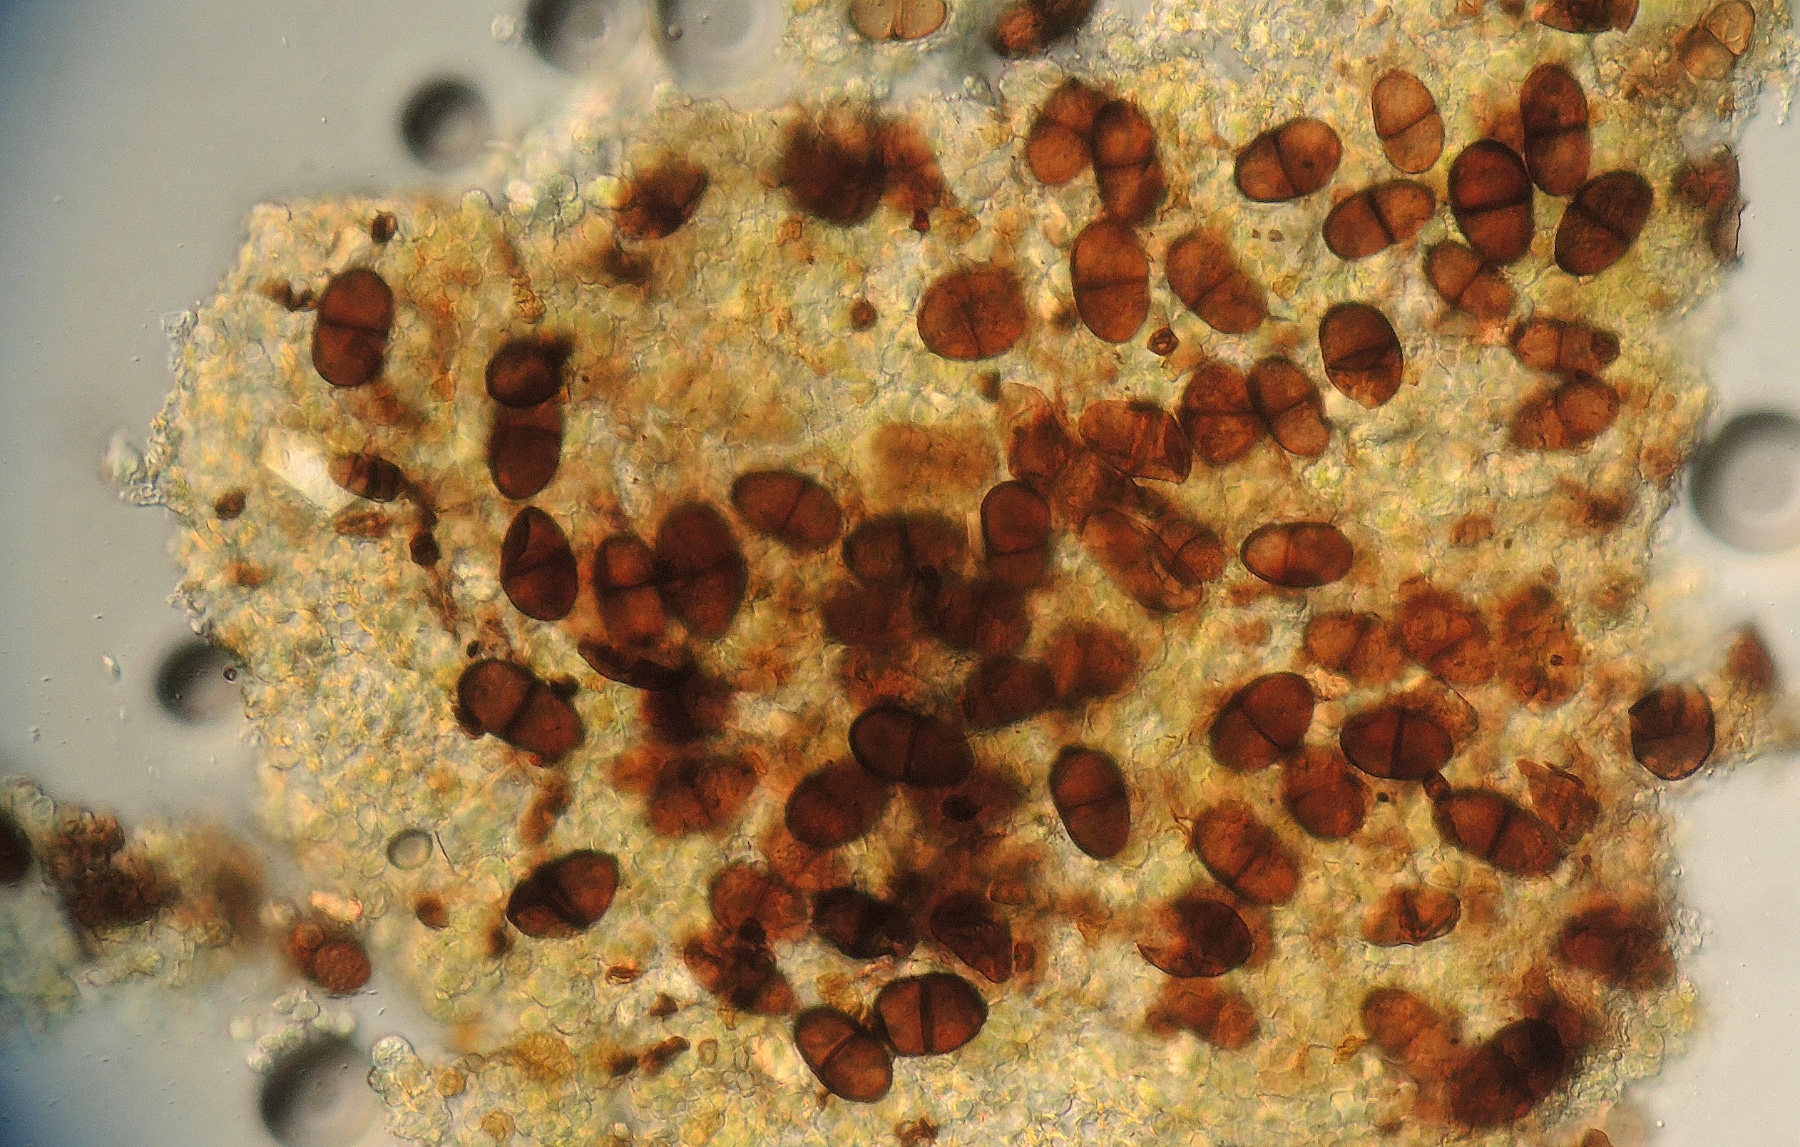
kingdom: Fungi
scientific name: Fungi
